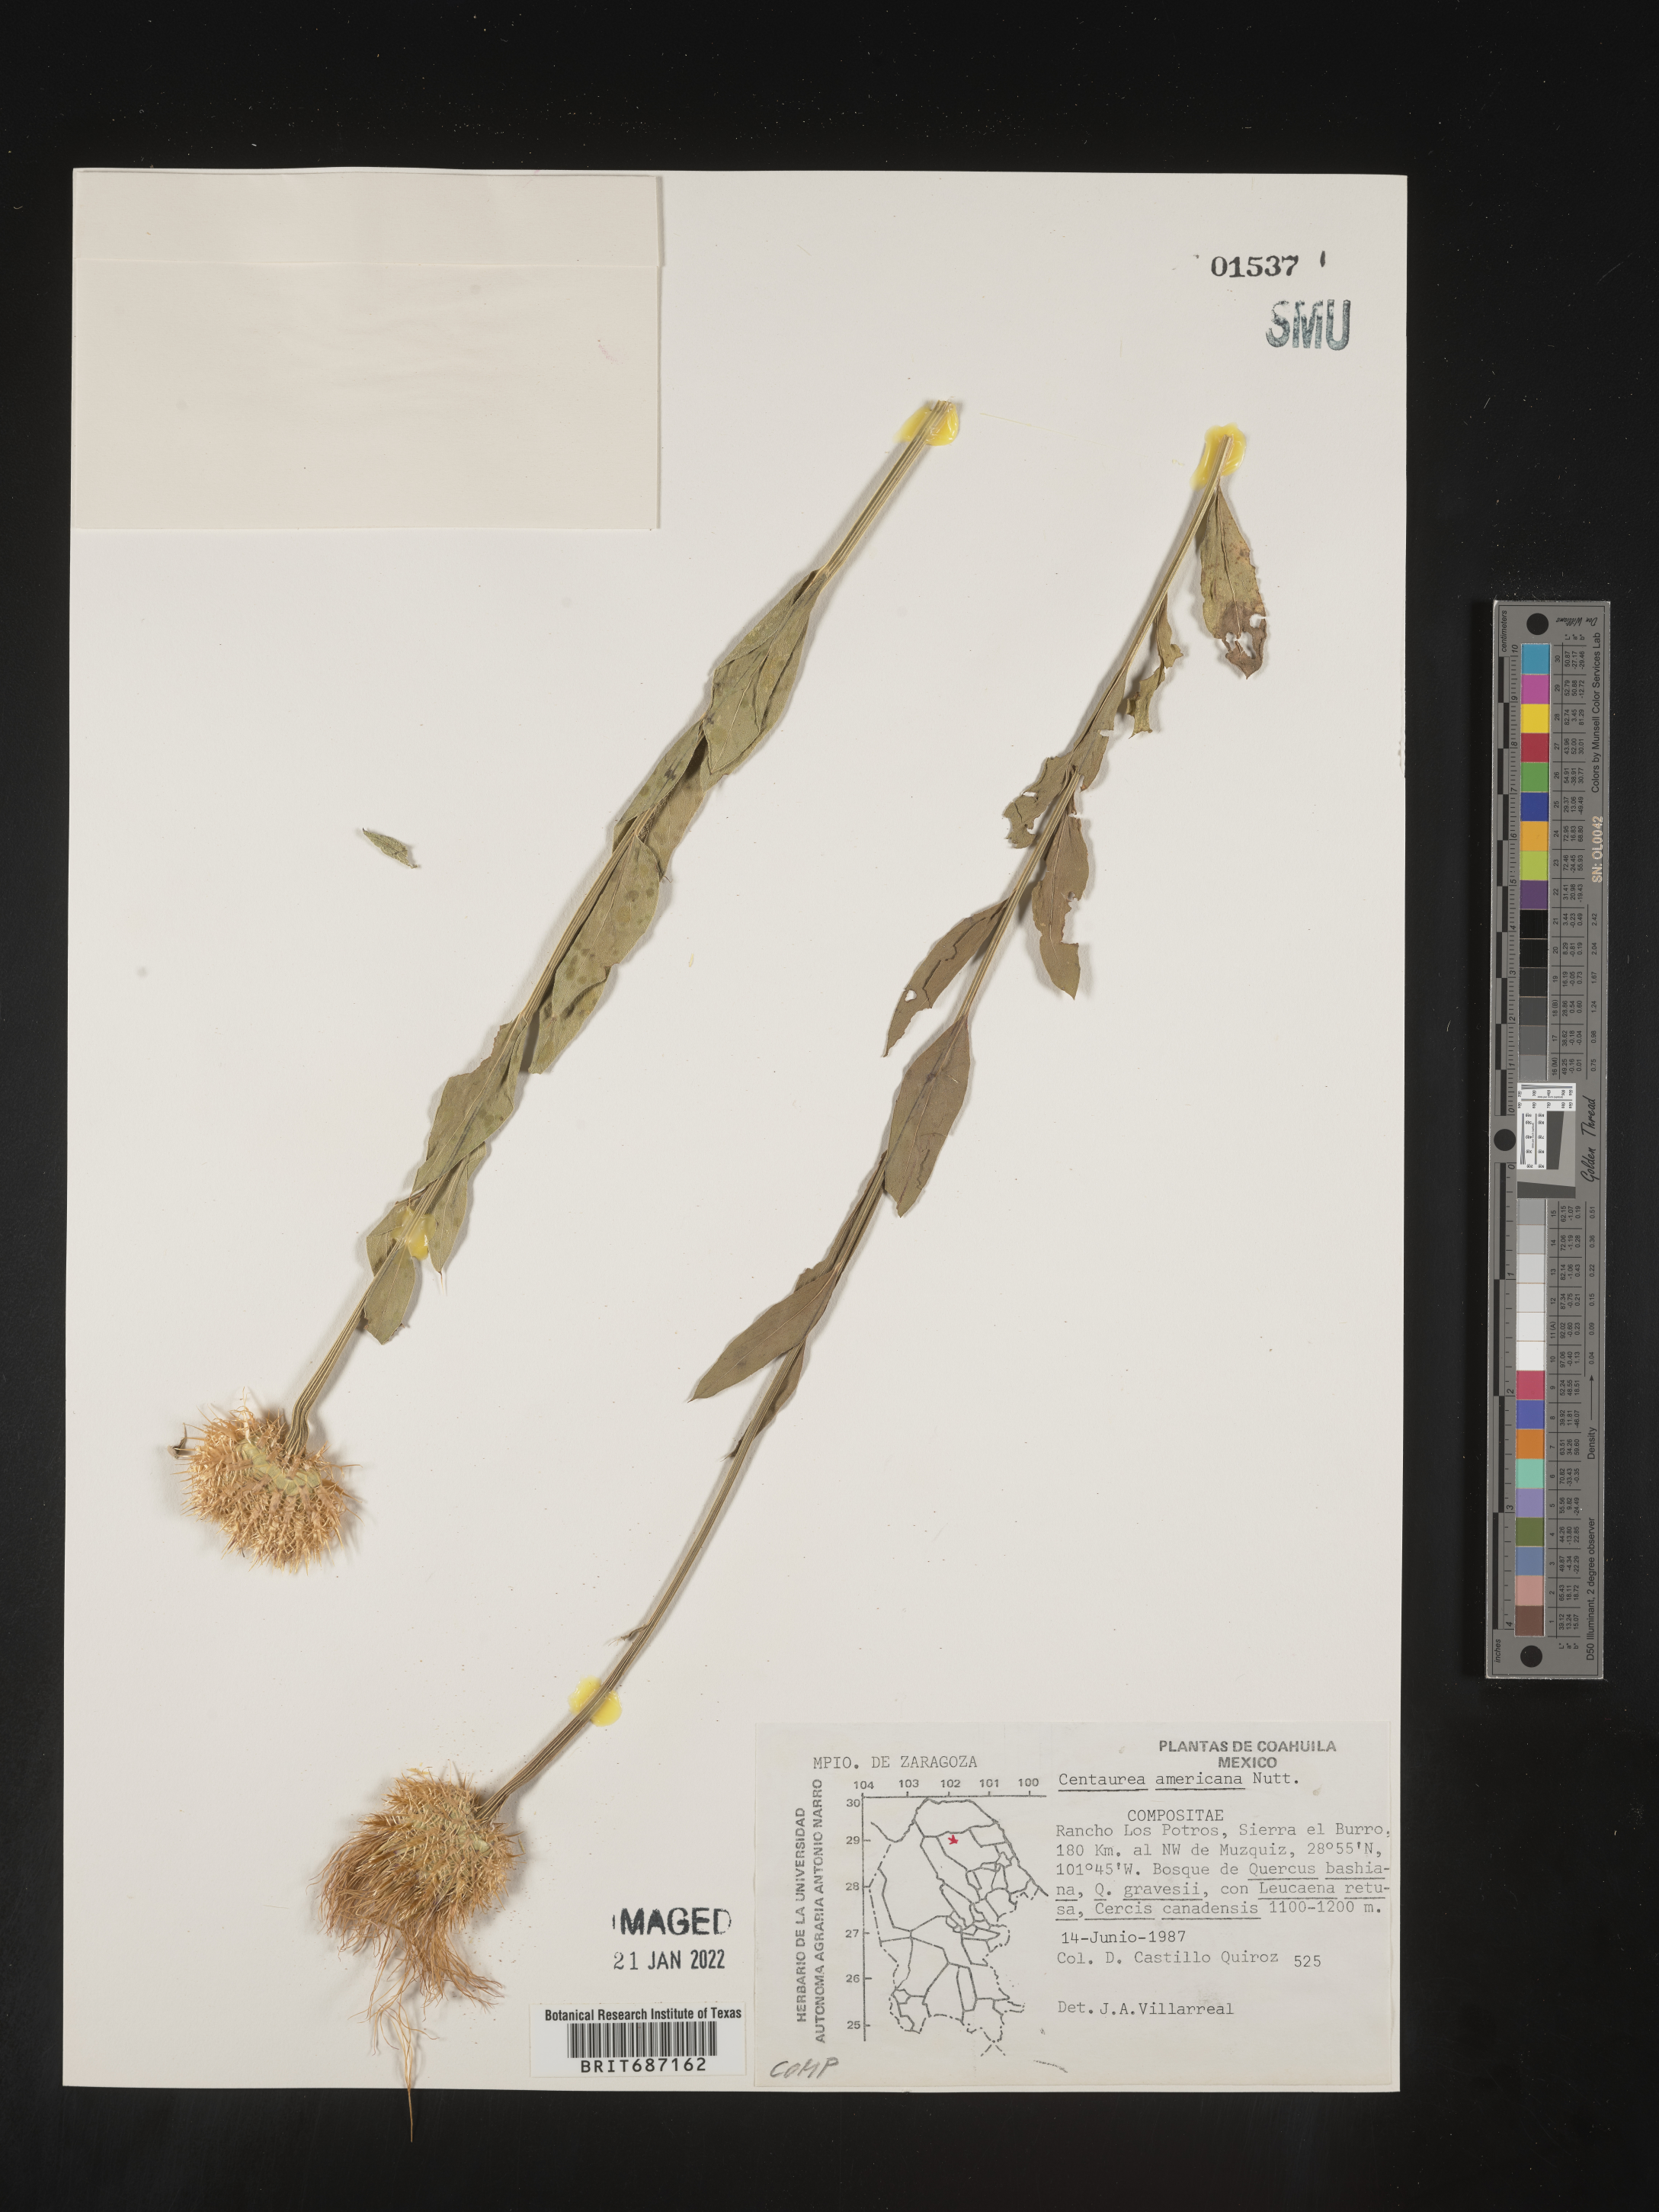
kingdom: Plantae
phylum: Tracheophyta
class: Magnoliopsida
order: Asterales
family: Asteraceae
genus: Centaurea
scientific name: Centaurea
